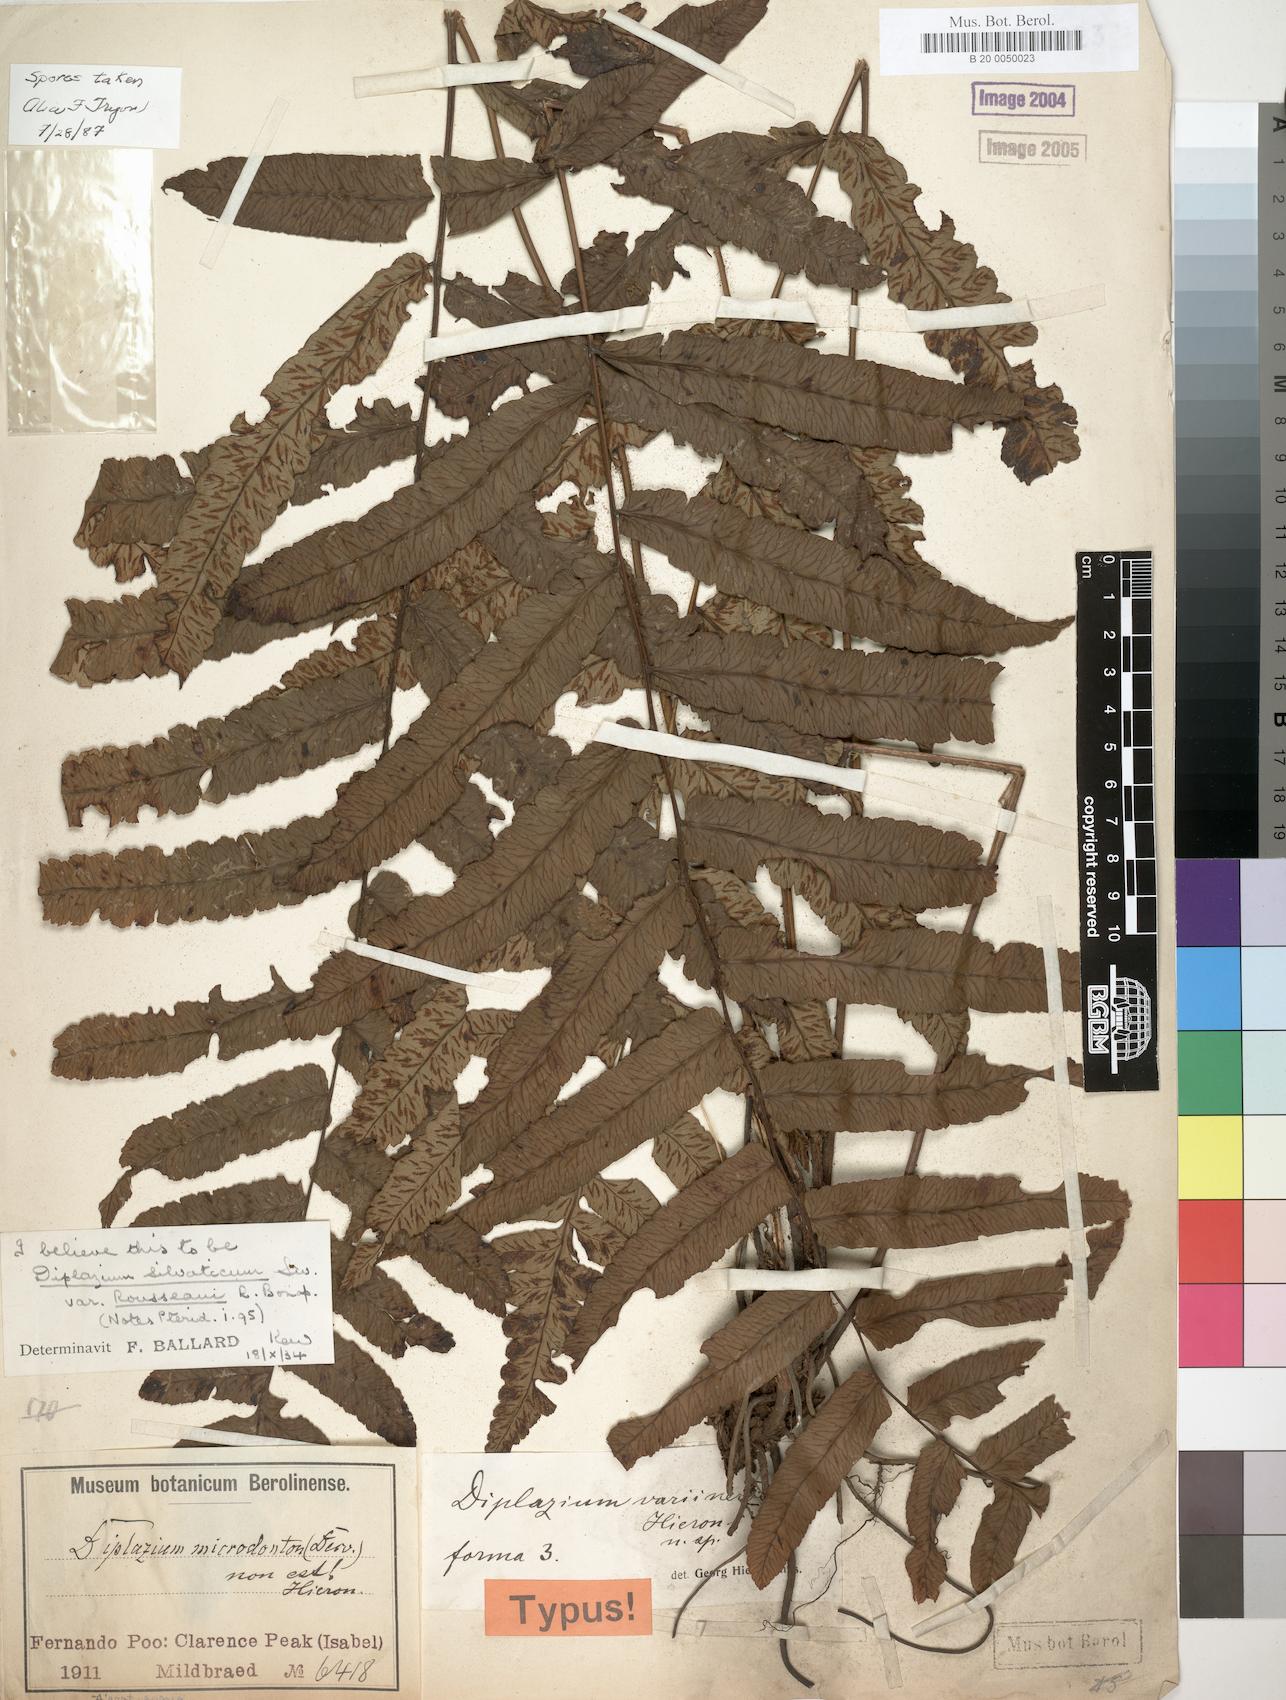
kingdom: Plantae
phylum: Tracheophyta
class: Polypodiopsida
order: Polypodiales
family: Athyriaceae
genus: Diplazium
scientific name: Diplazium welwitschii
